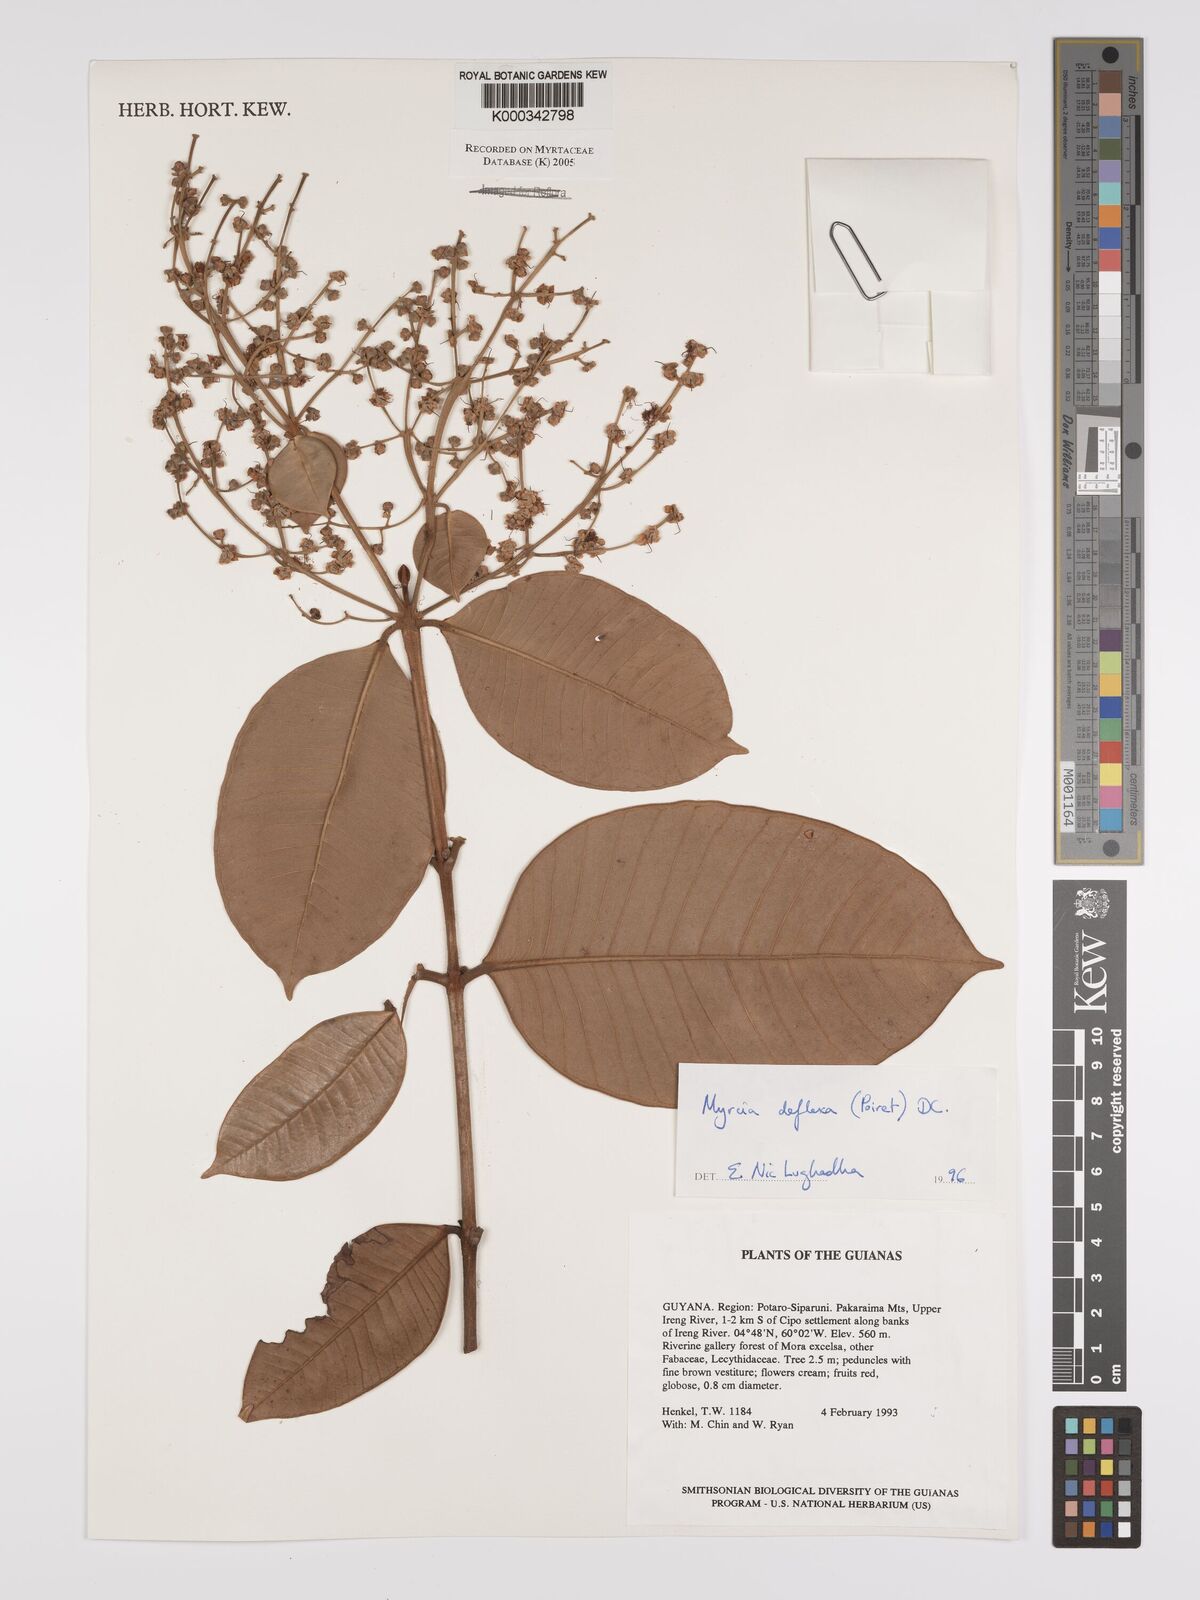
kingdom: Plantae
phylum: Tracheophyta
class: Magnoliopsida
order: Myrtales
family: Myrtaceae
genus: Myrcia
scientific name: Myrcia deflexa
